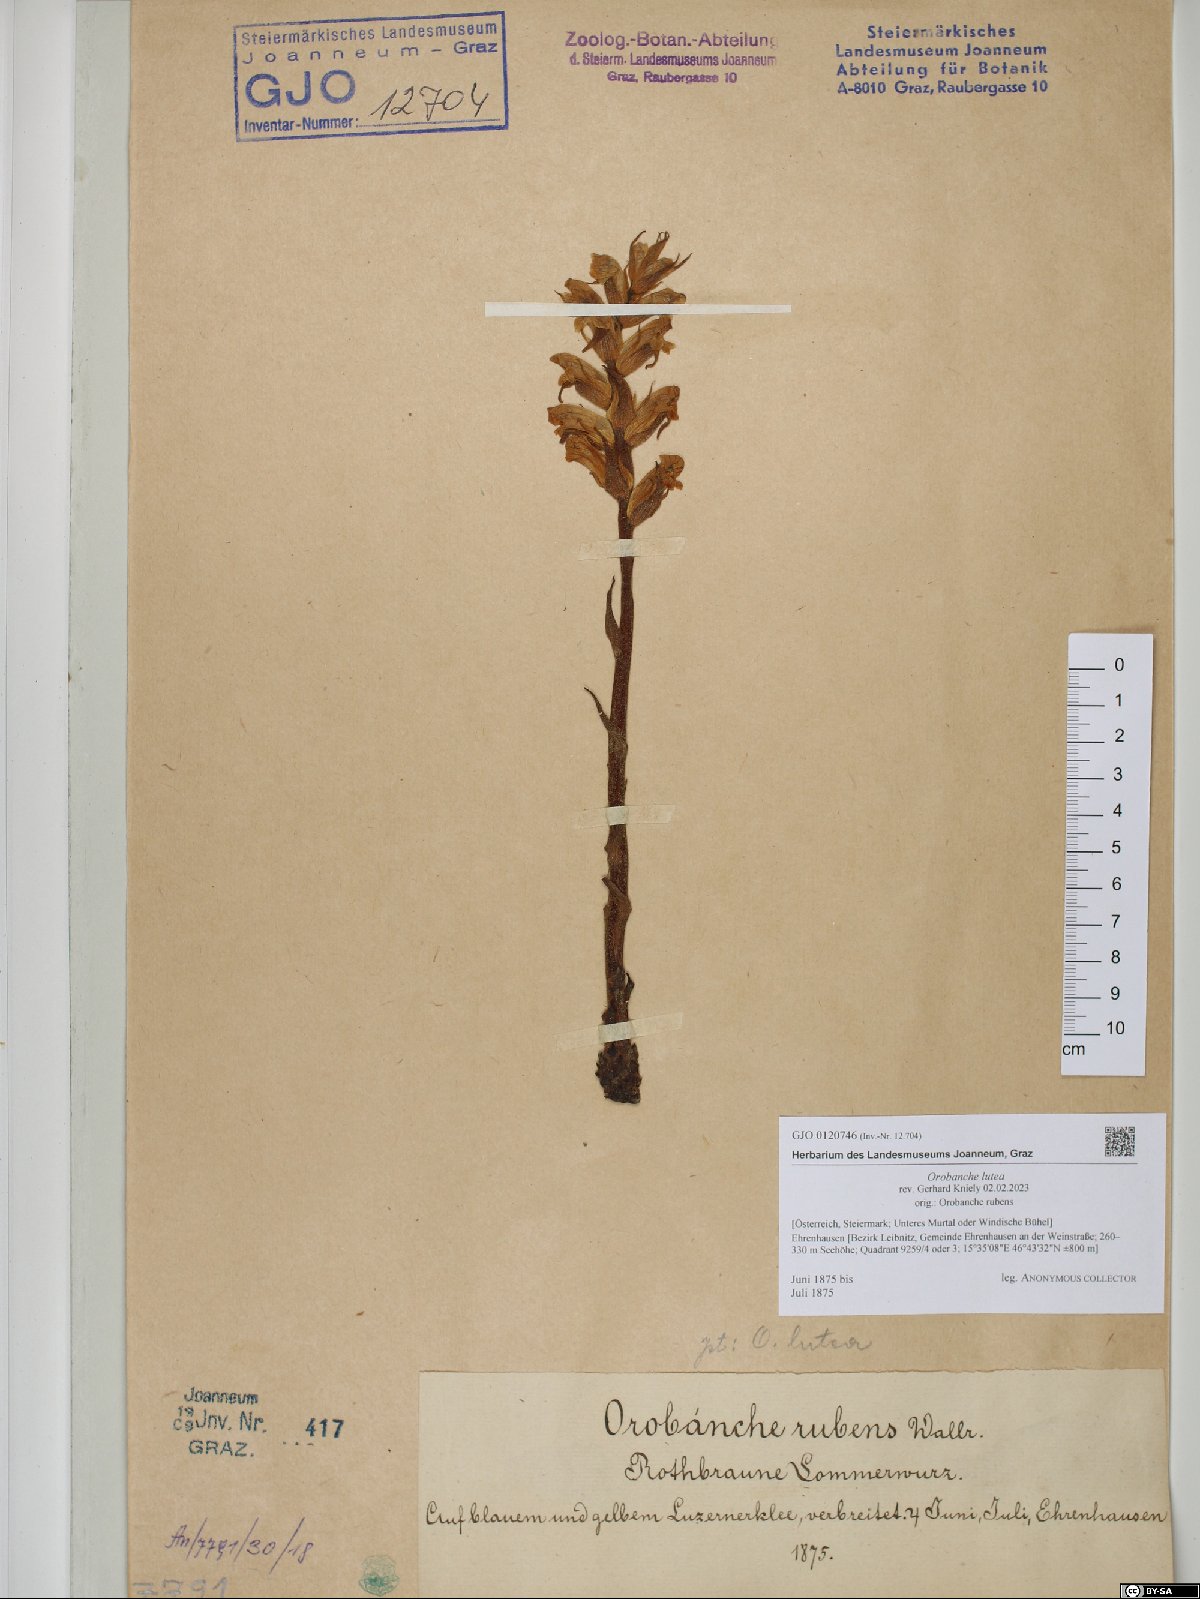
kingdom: Plantae
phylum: Tracheophyta
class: Magnoliopsida
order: Lamiales
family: Orobanchaceae
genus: Orobanche
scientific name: Orobanche lutea
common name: Yellow broomrape
